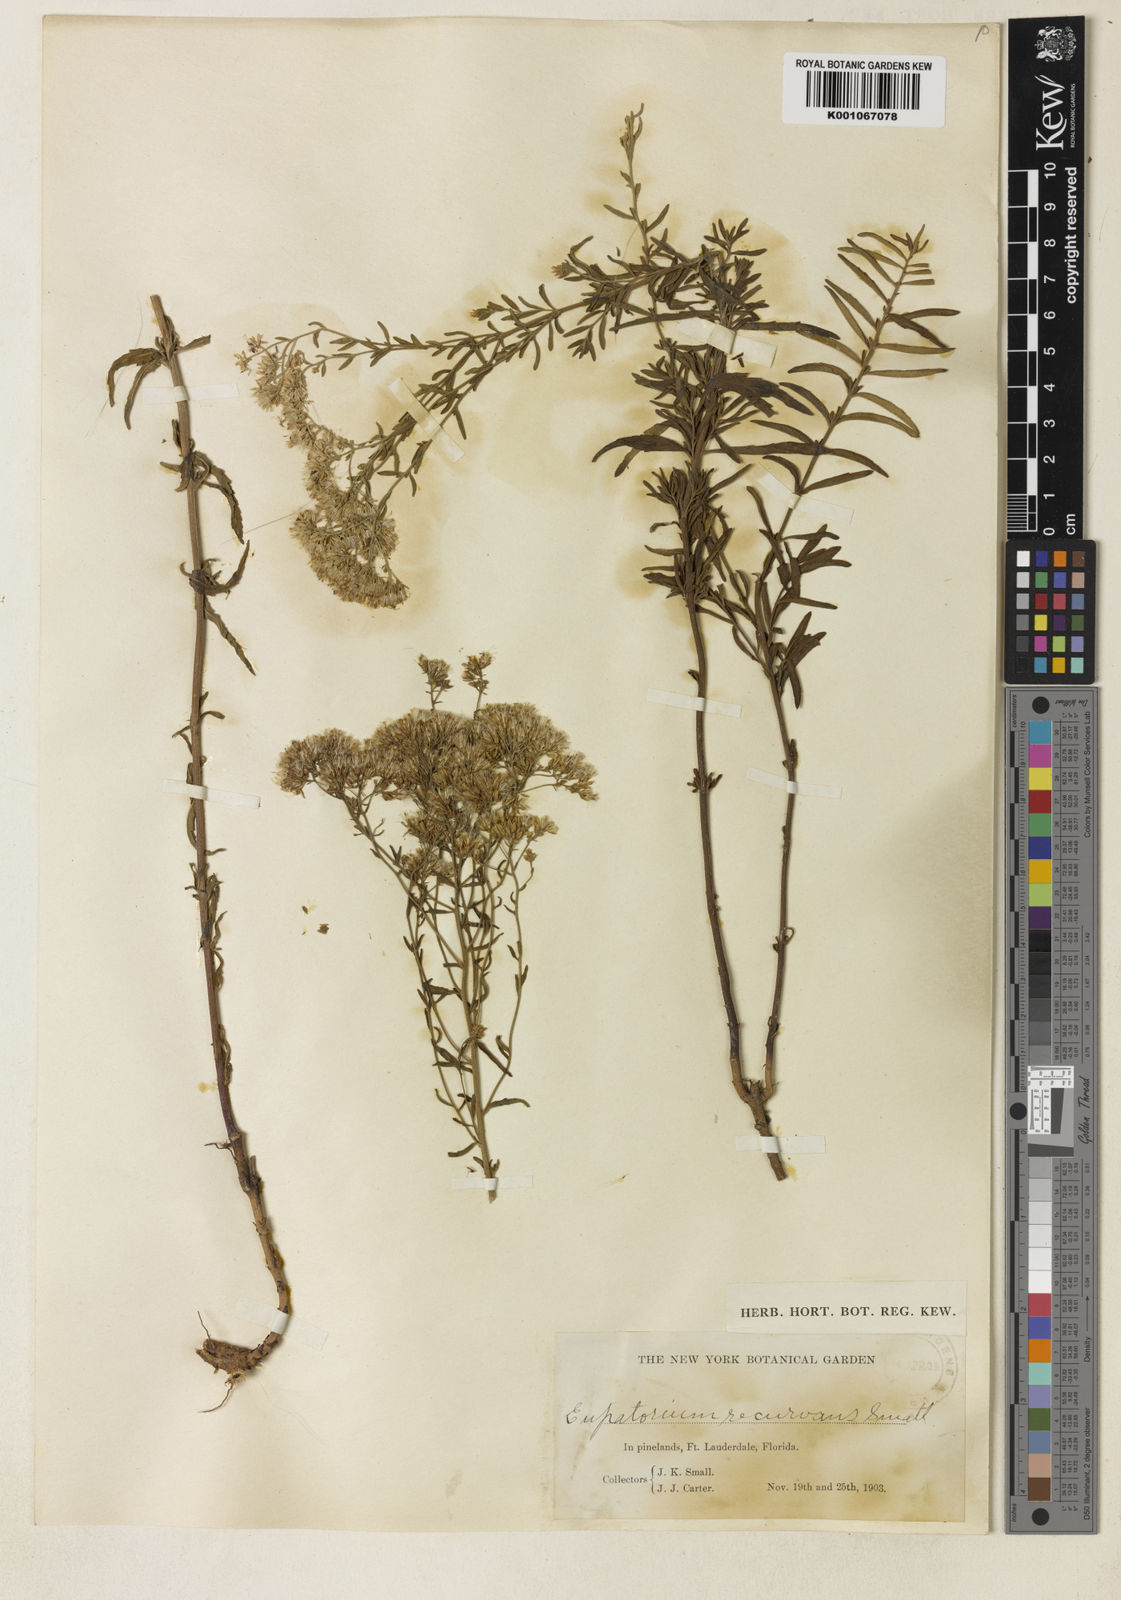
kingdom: Plantae
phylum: Tracheophyta
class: Magnoliopsida
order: Asterales
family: Asteraceae
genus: Eupatorium
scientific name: Eupatorium mohrii
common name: Mohr's thoroughwort
